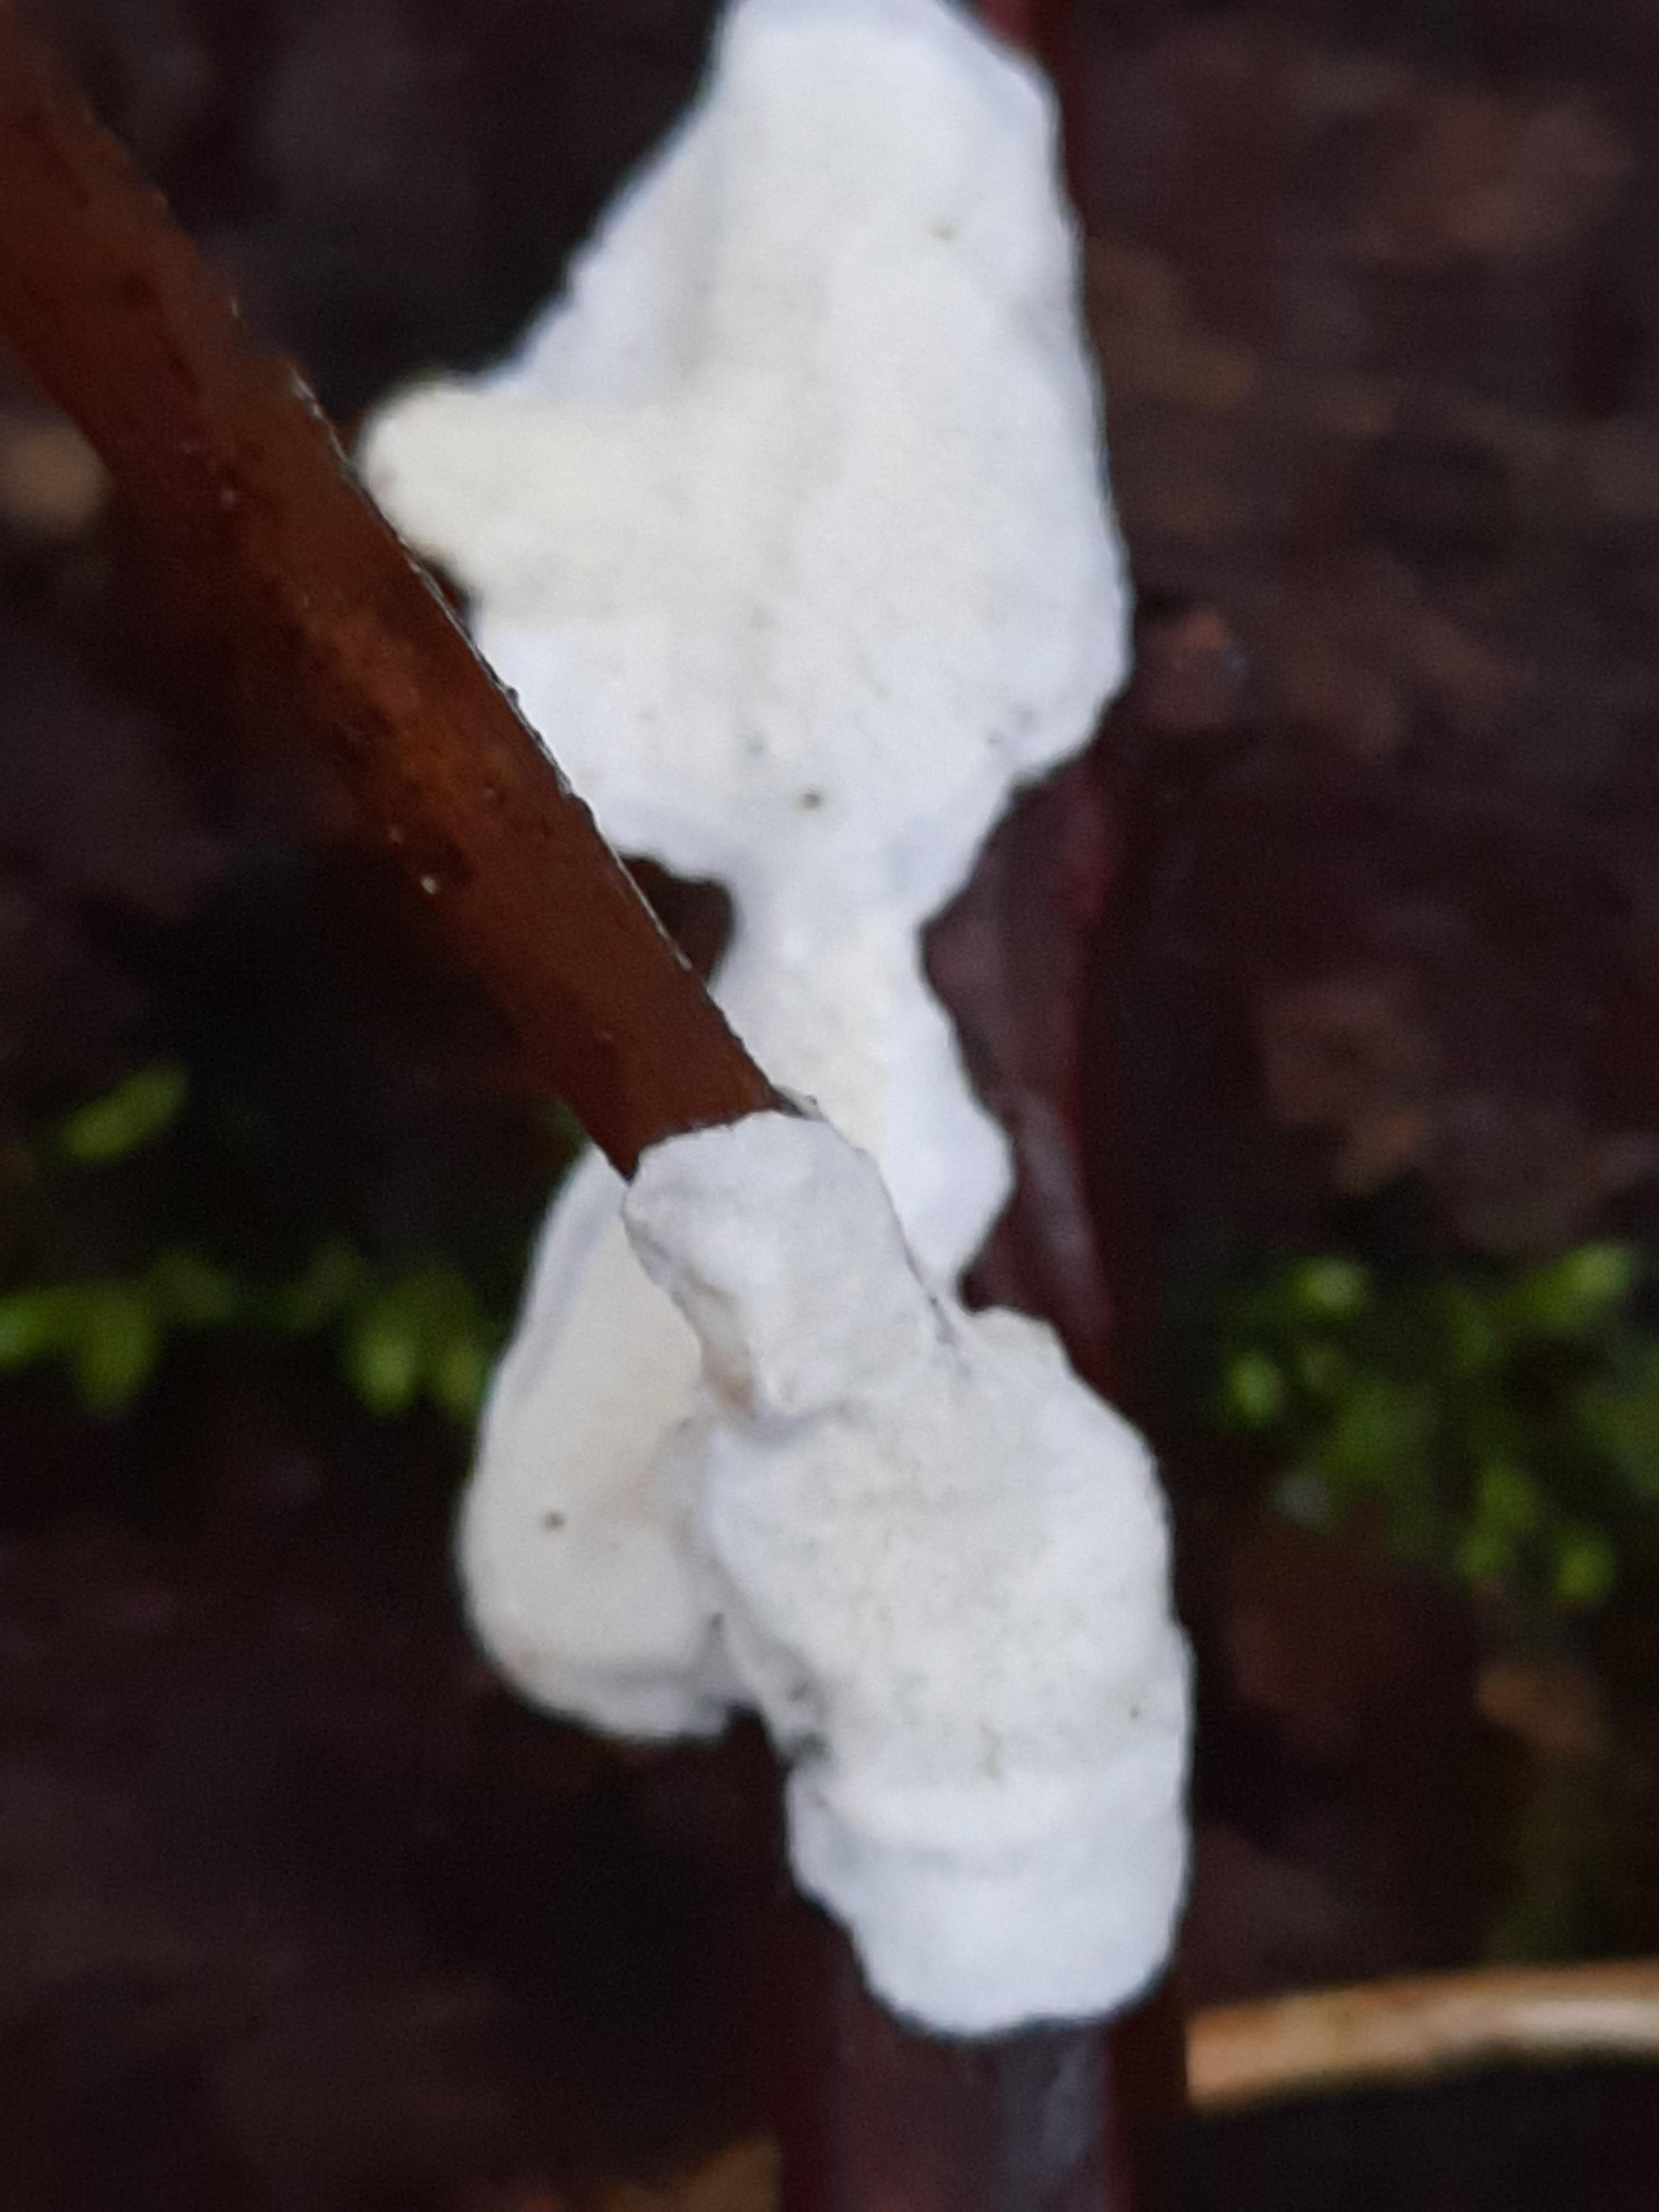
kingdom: Fungi
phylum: Basidiomycota
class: Agaricomycetes
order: Polyporales
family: Irpicaceae
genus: Byssomerulius
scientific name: Byssomerulius corium
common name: læder-åresvamp
